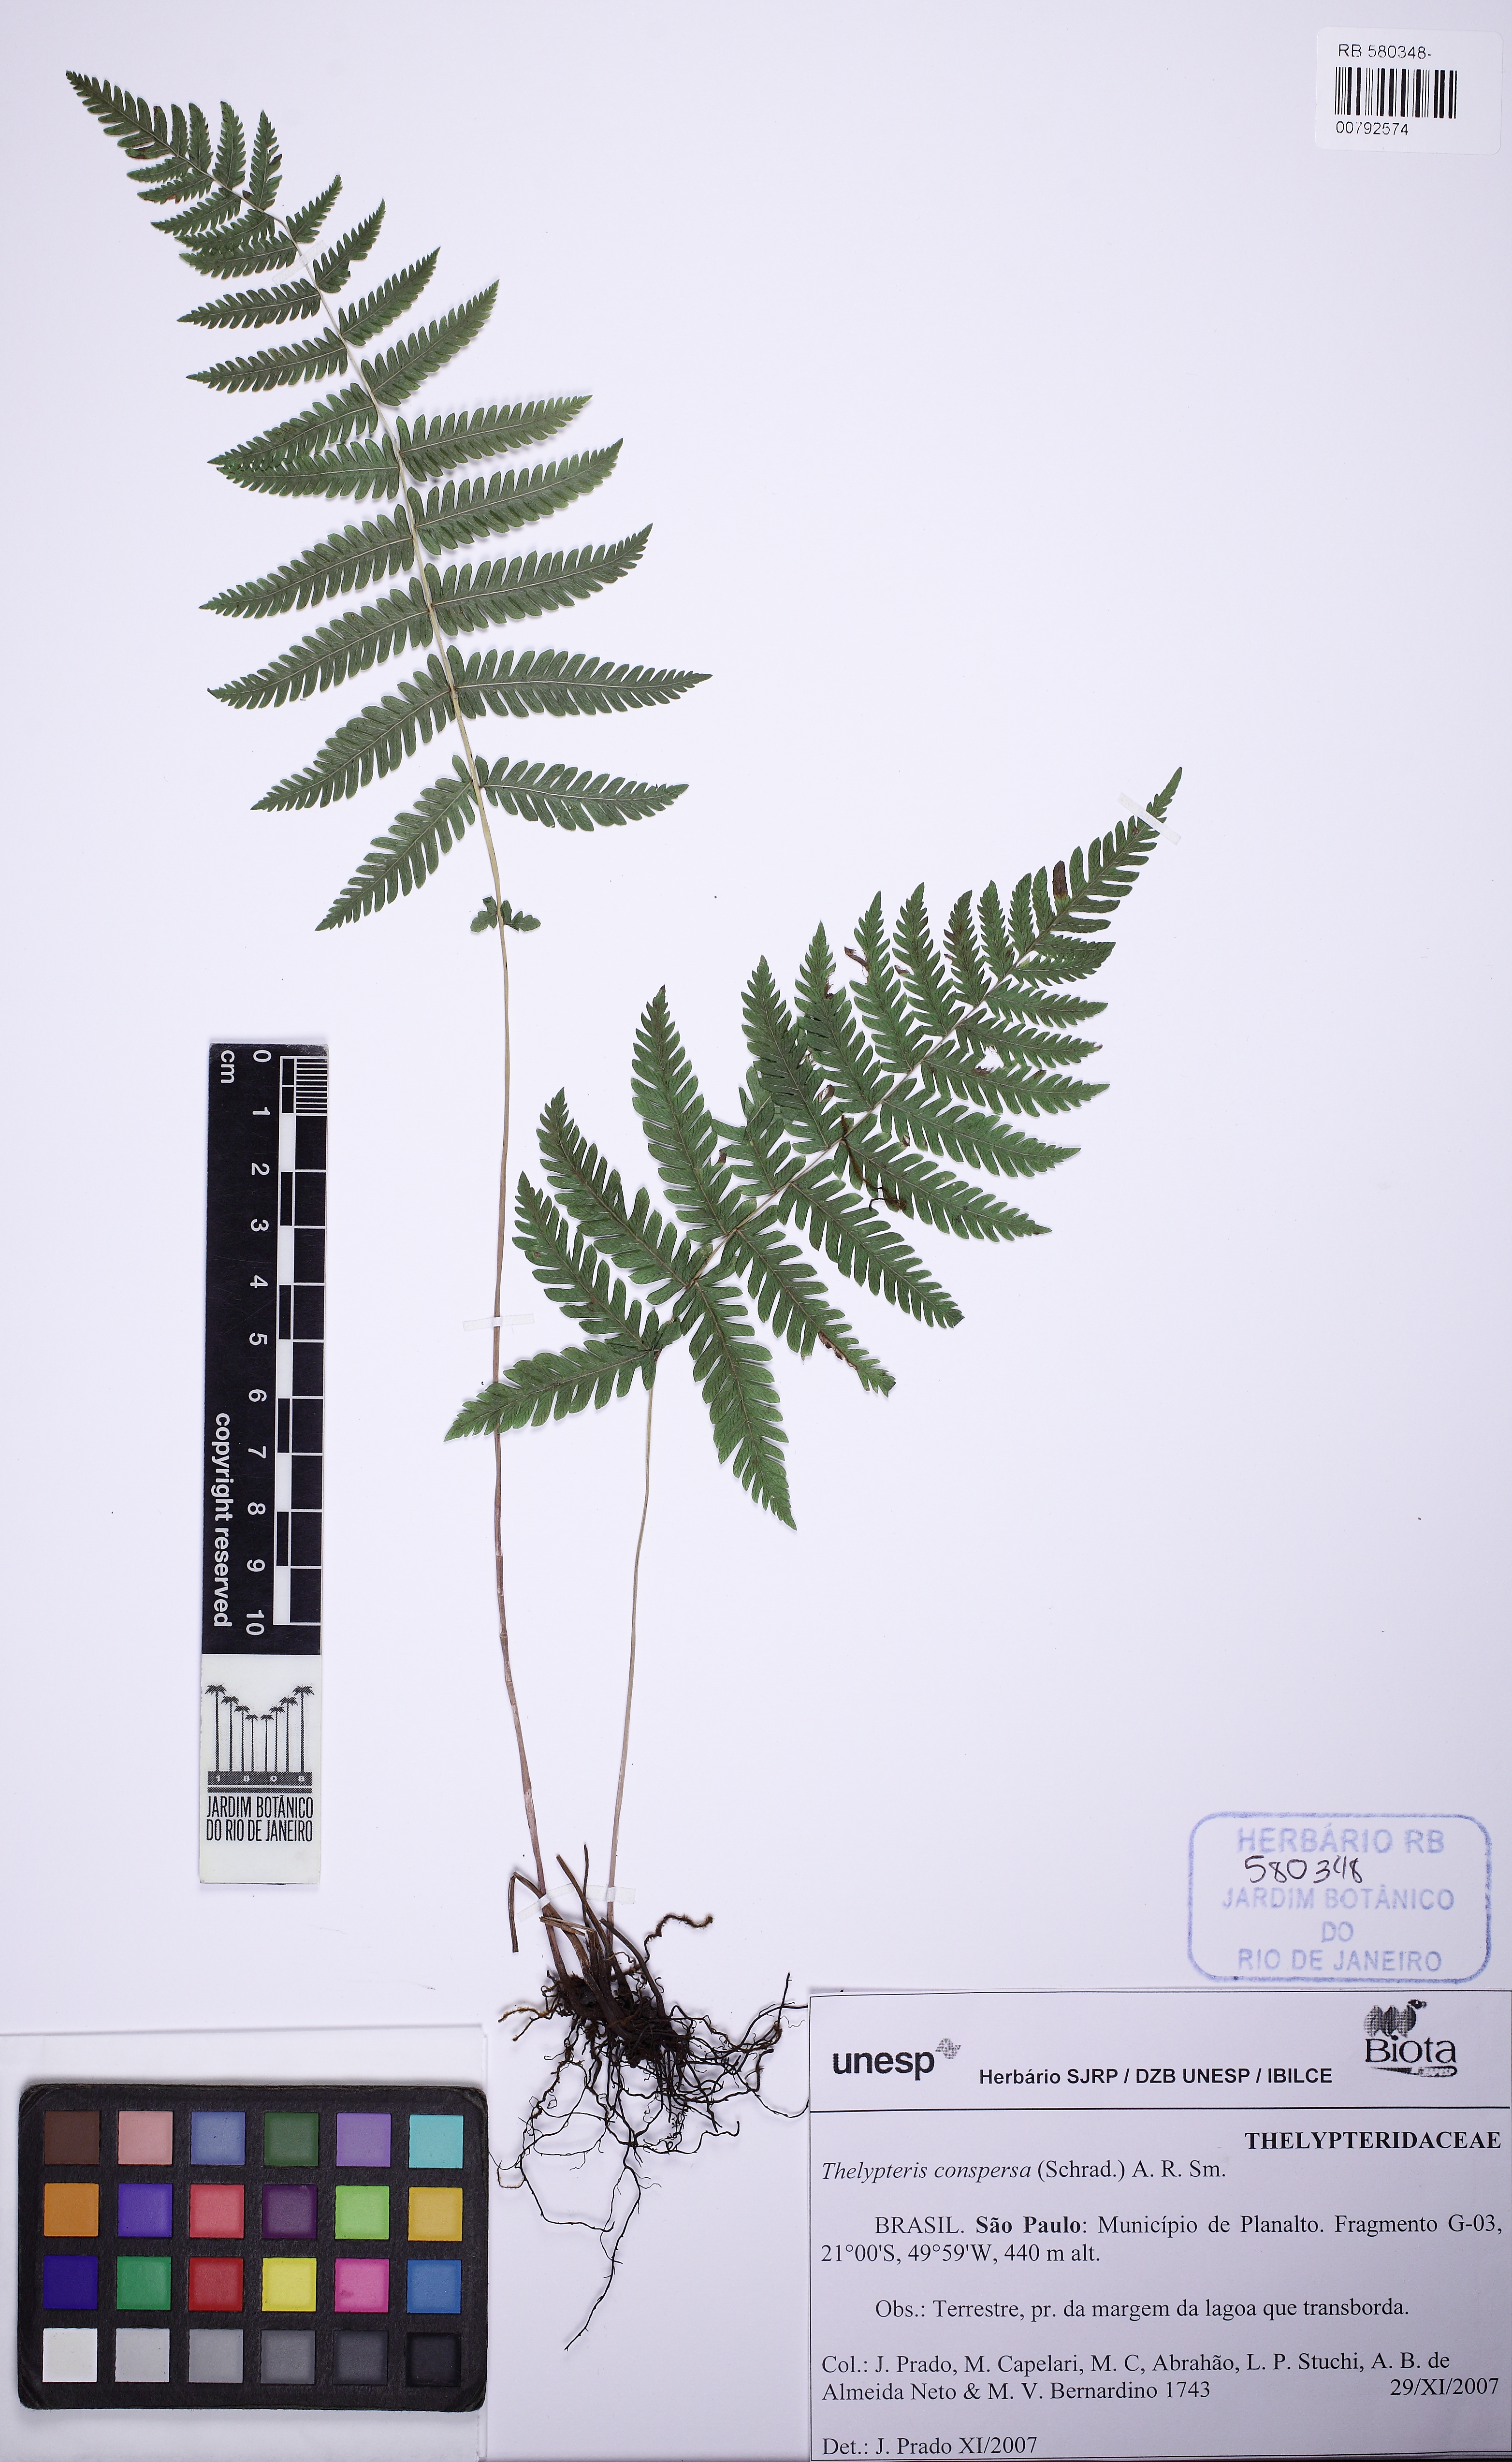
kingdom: Plantae
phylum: Tracheophyta
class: Polypodiopsida
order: Polypodiales
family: Thelypteridaceae
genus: Christella
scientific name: Christella conspersa
